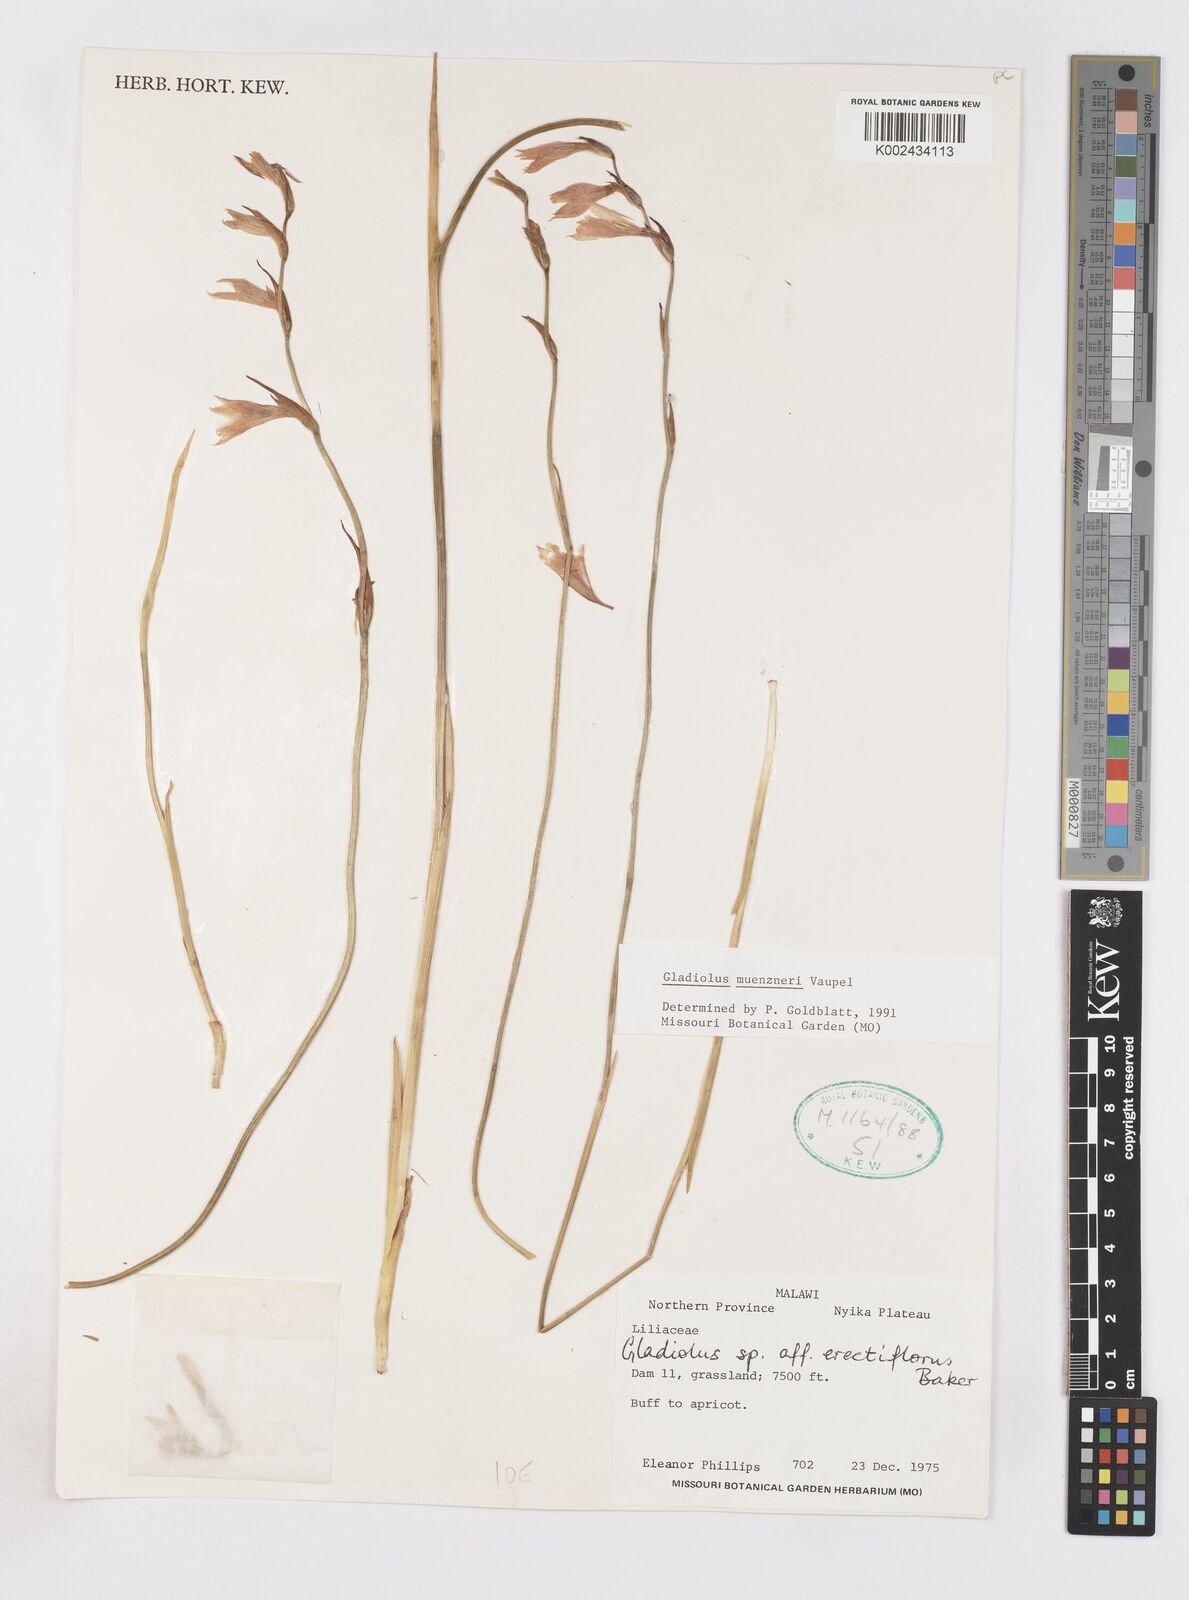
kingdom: Plantae
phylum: Tracheophyta
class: Liliopsida
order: Asparagales
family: Iridaceae
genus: Gladiolus
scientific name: Gladiolus muenzneri
